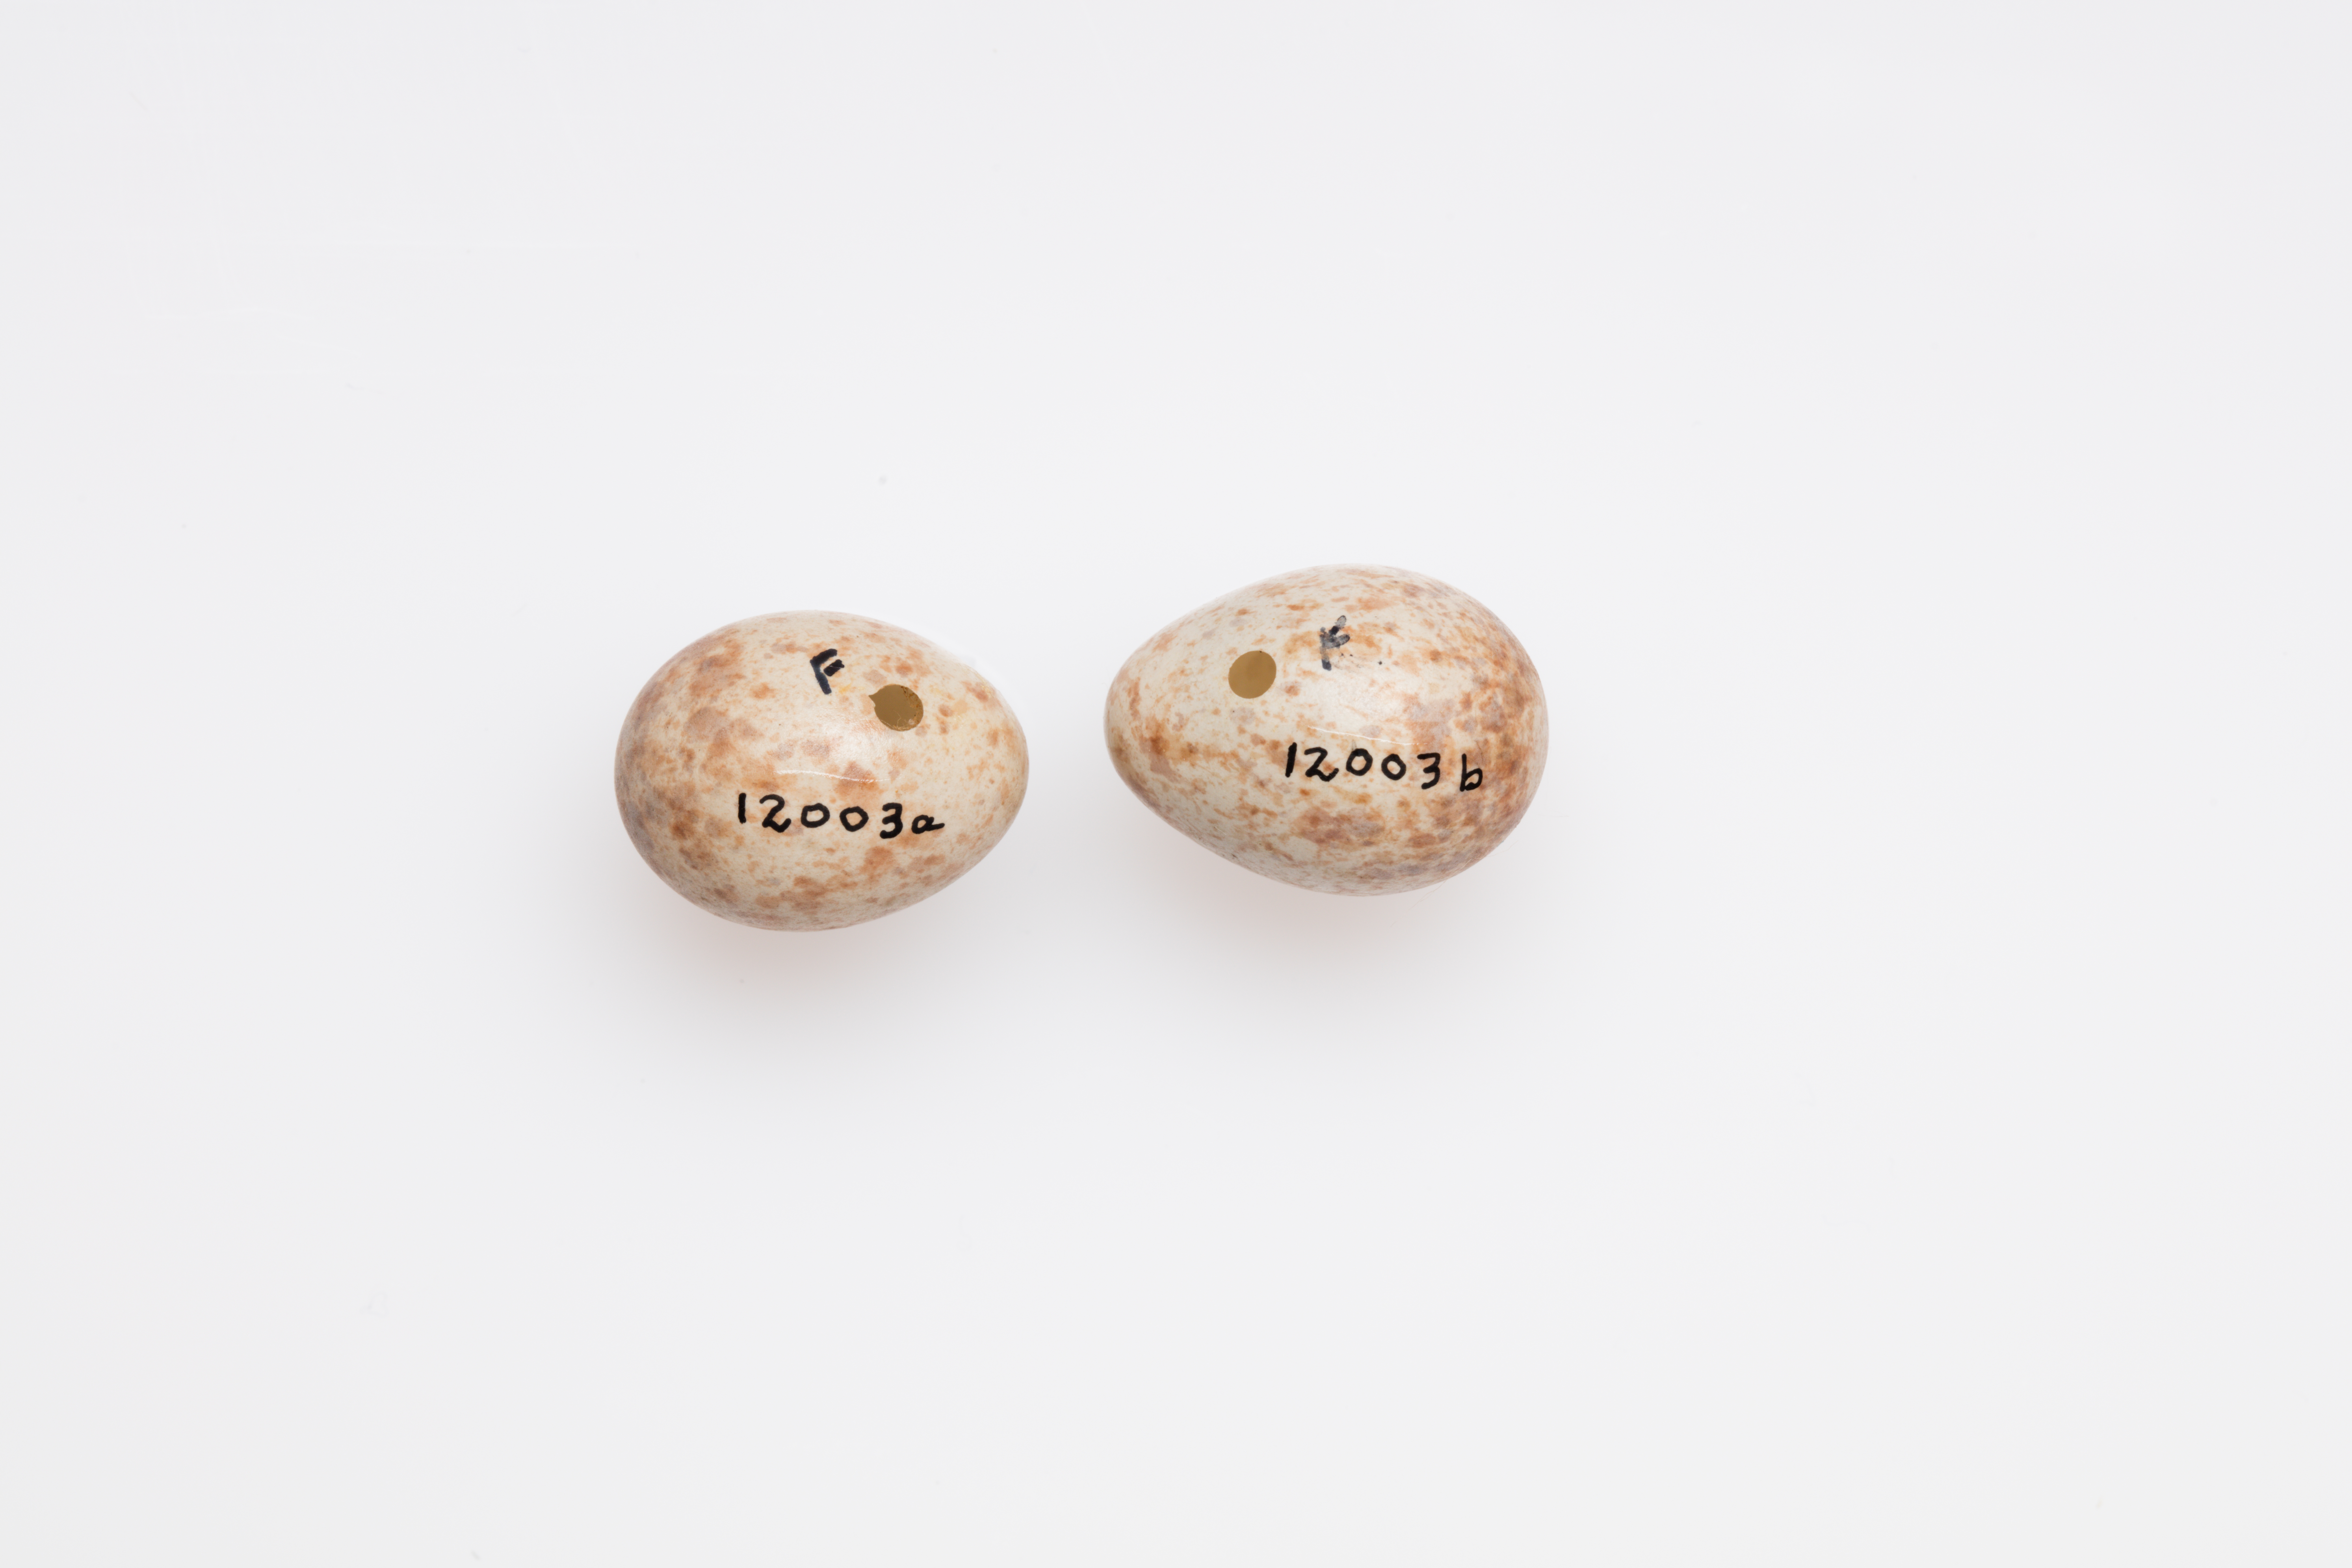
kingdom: Animalia
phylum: Chordata
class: Aves
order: Passeriformes
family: Sylviidae
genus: Sylvia
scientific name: Sylvia atricapilla
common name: Eurasian blackcap
